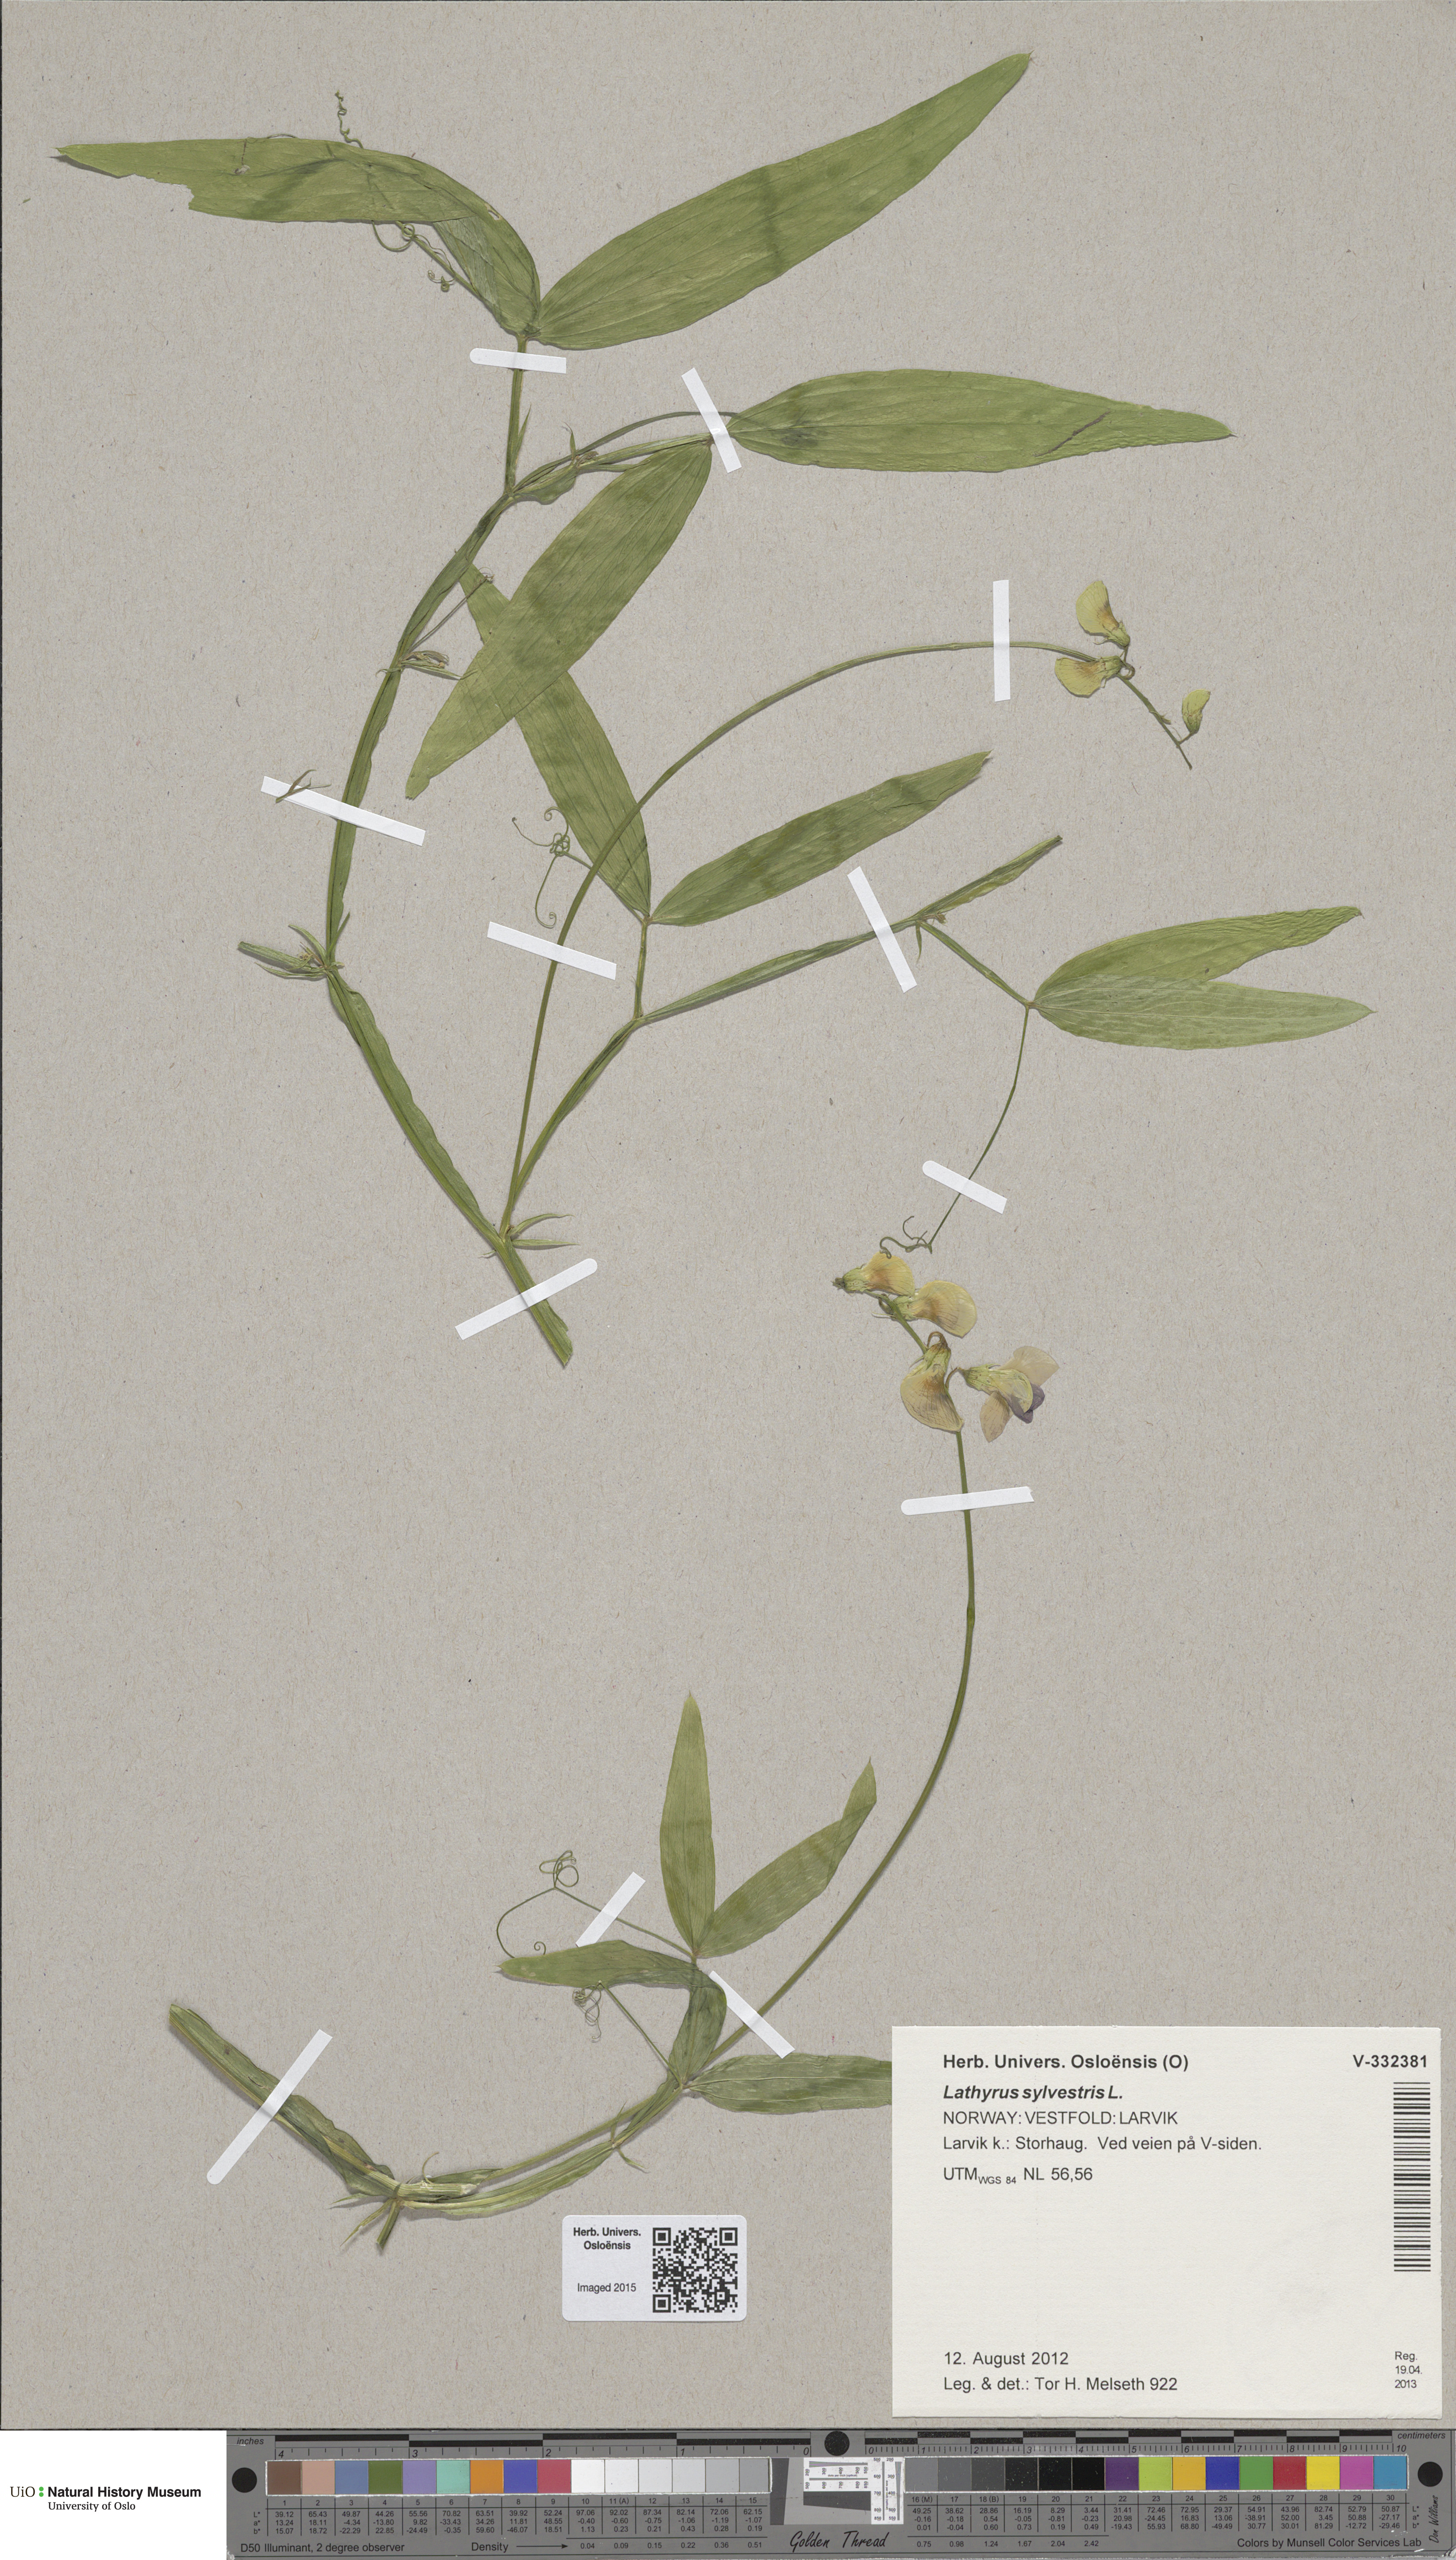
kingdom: Plantae
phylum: Tracheophyta
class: Magnoliopsida
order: Fabales
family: Fabaceae
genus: Lathyrus
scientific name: Lathyrus sylvestris
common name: Flat pea
